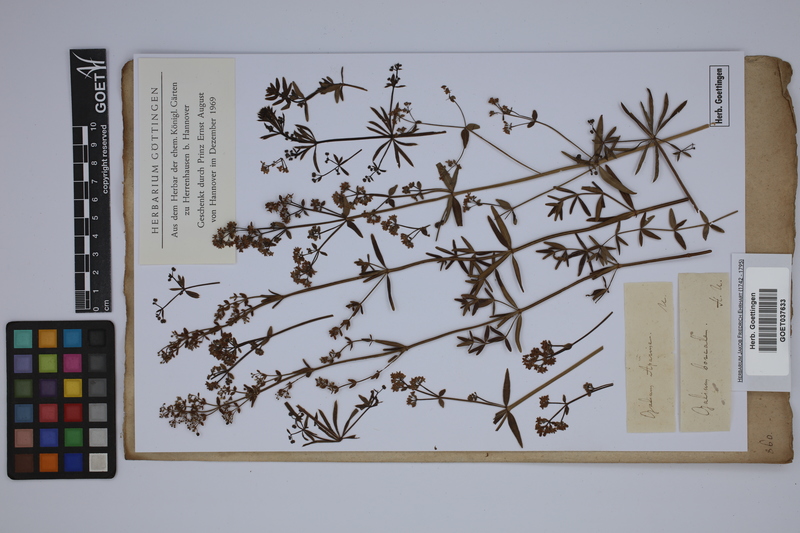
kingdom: Plantae
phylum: Tracheophyta
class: Magnoliopsida
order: Gentianales
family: Rubiaceae
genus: Galium
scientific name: Galium aparine
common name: Cleavers
